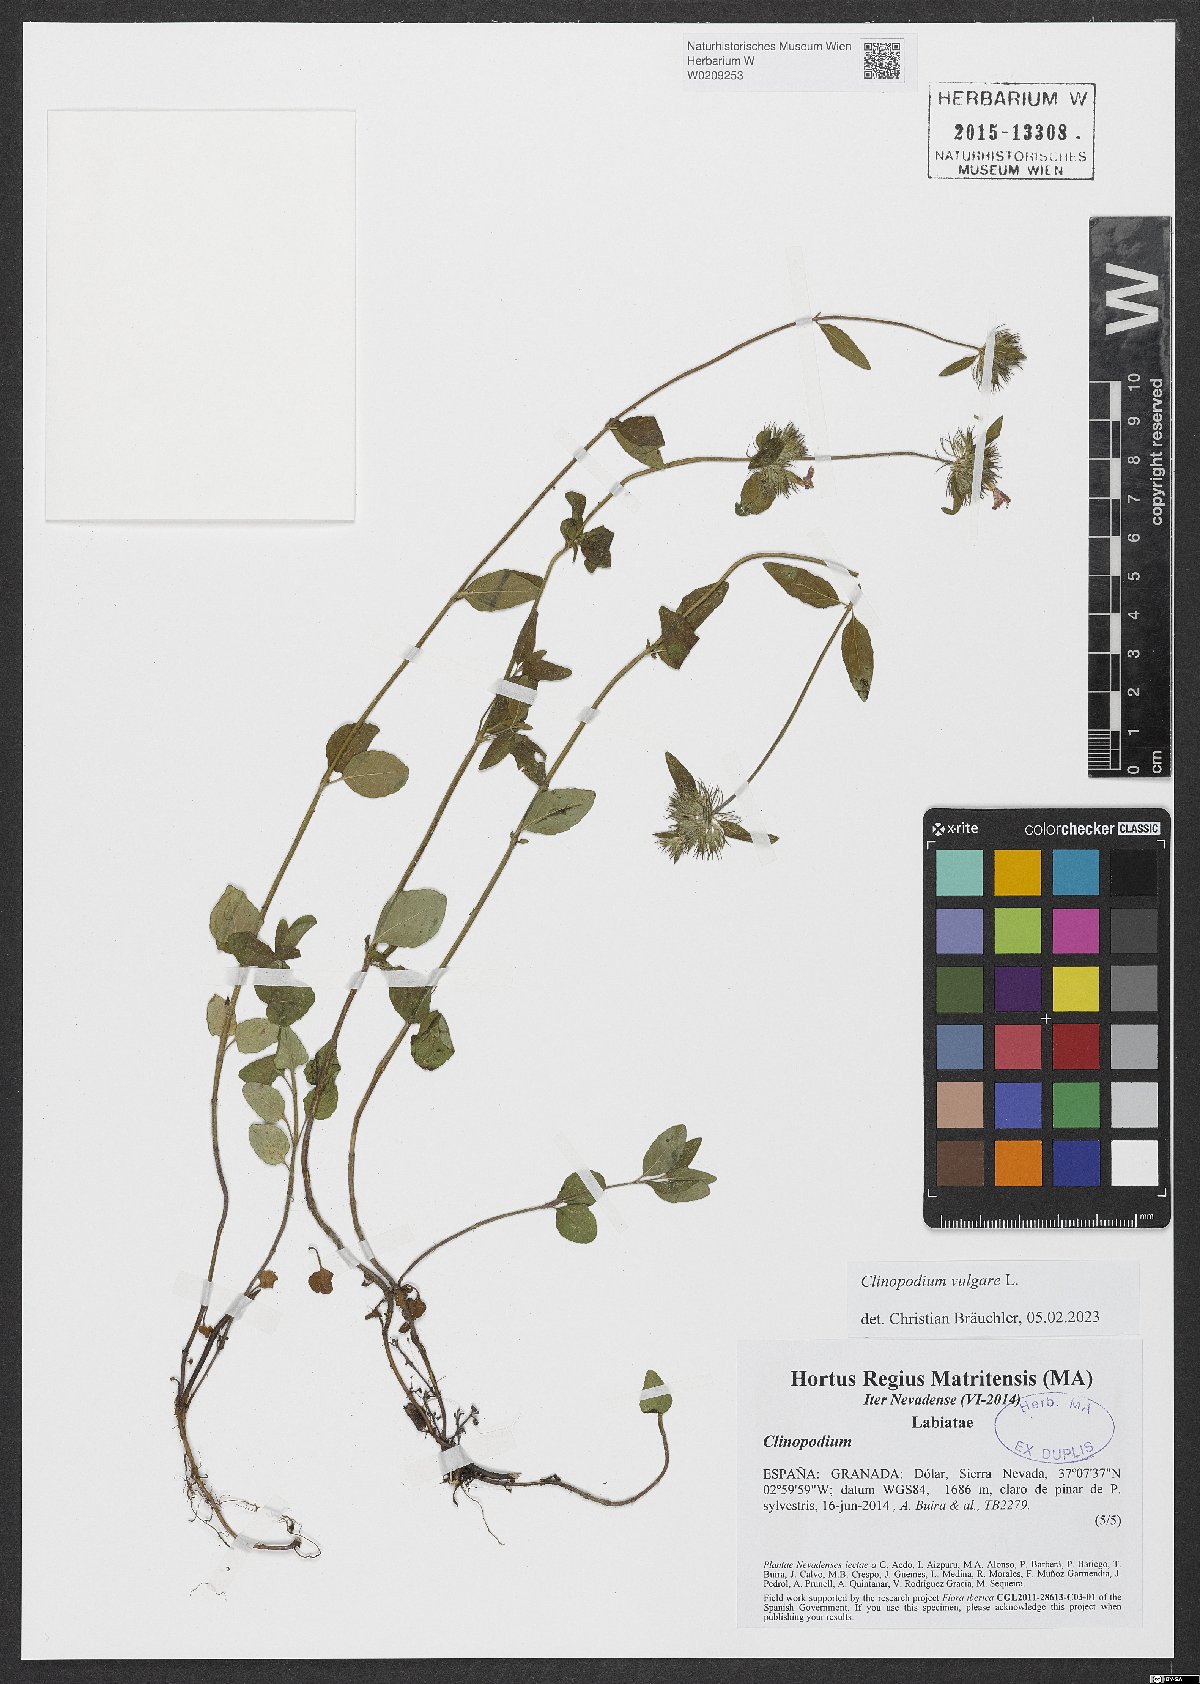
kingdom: Plantae
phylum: Tracheophyta
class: Magnoliopsida
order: Lamiales
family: Lamiaceae
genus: Clinopodium
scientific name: Clinopodium vulgare
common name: Wild basil
